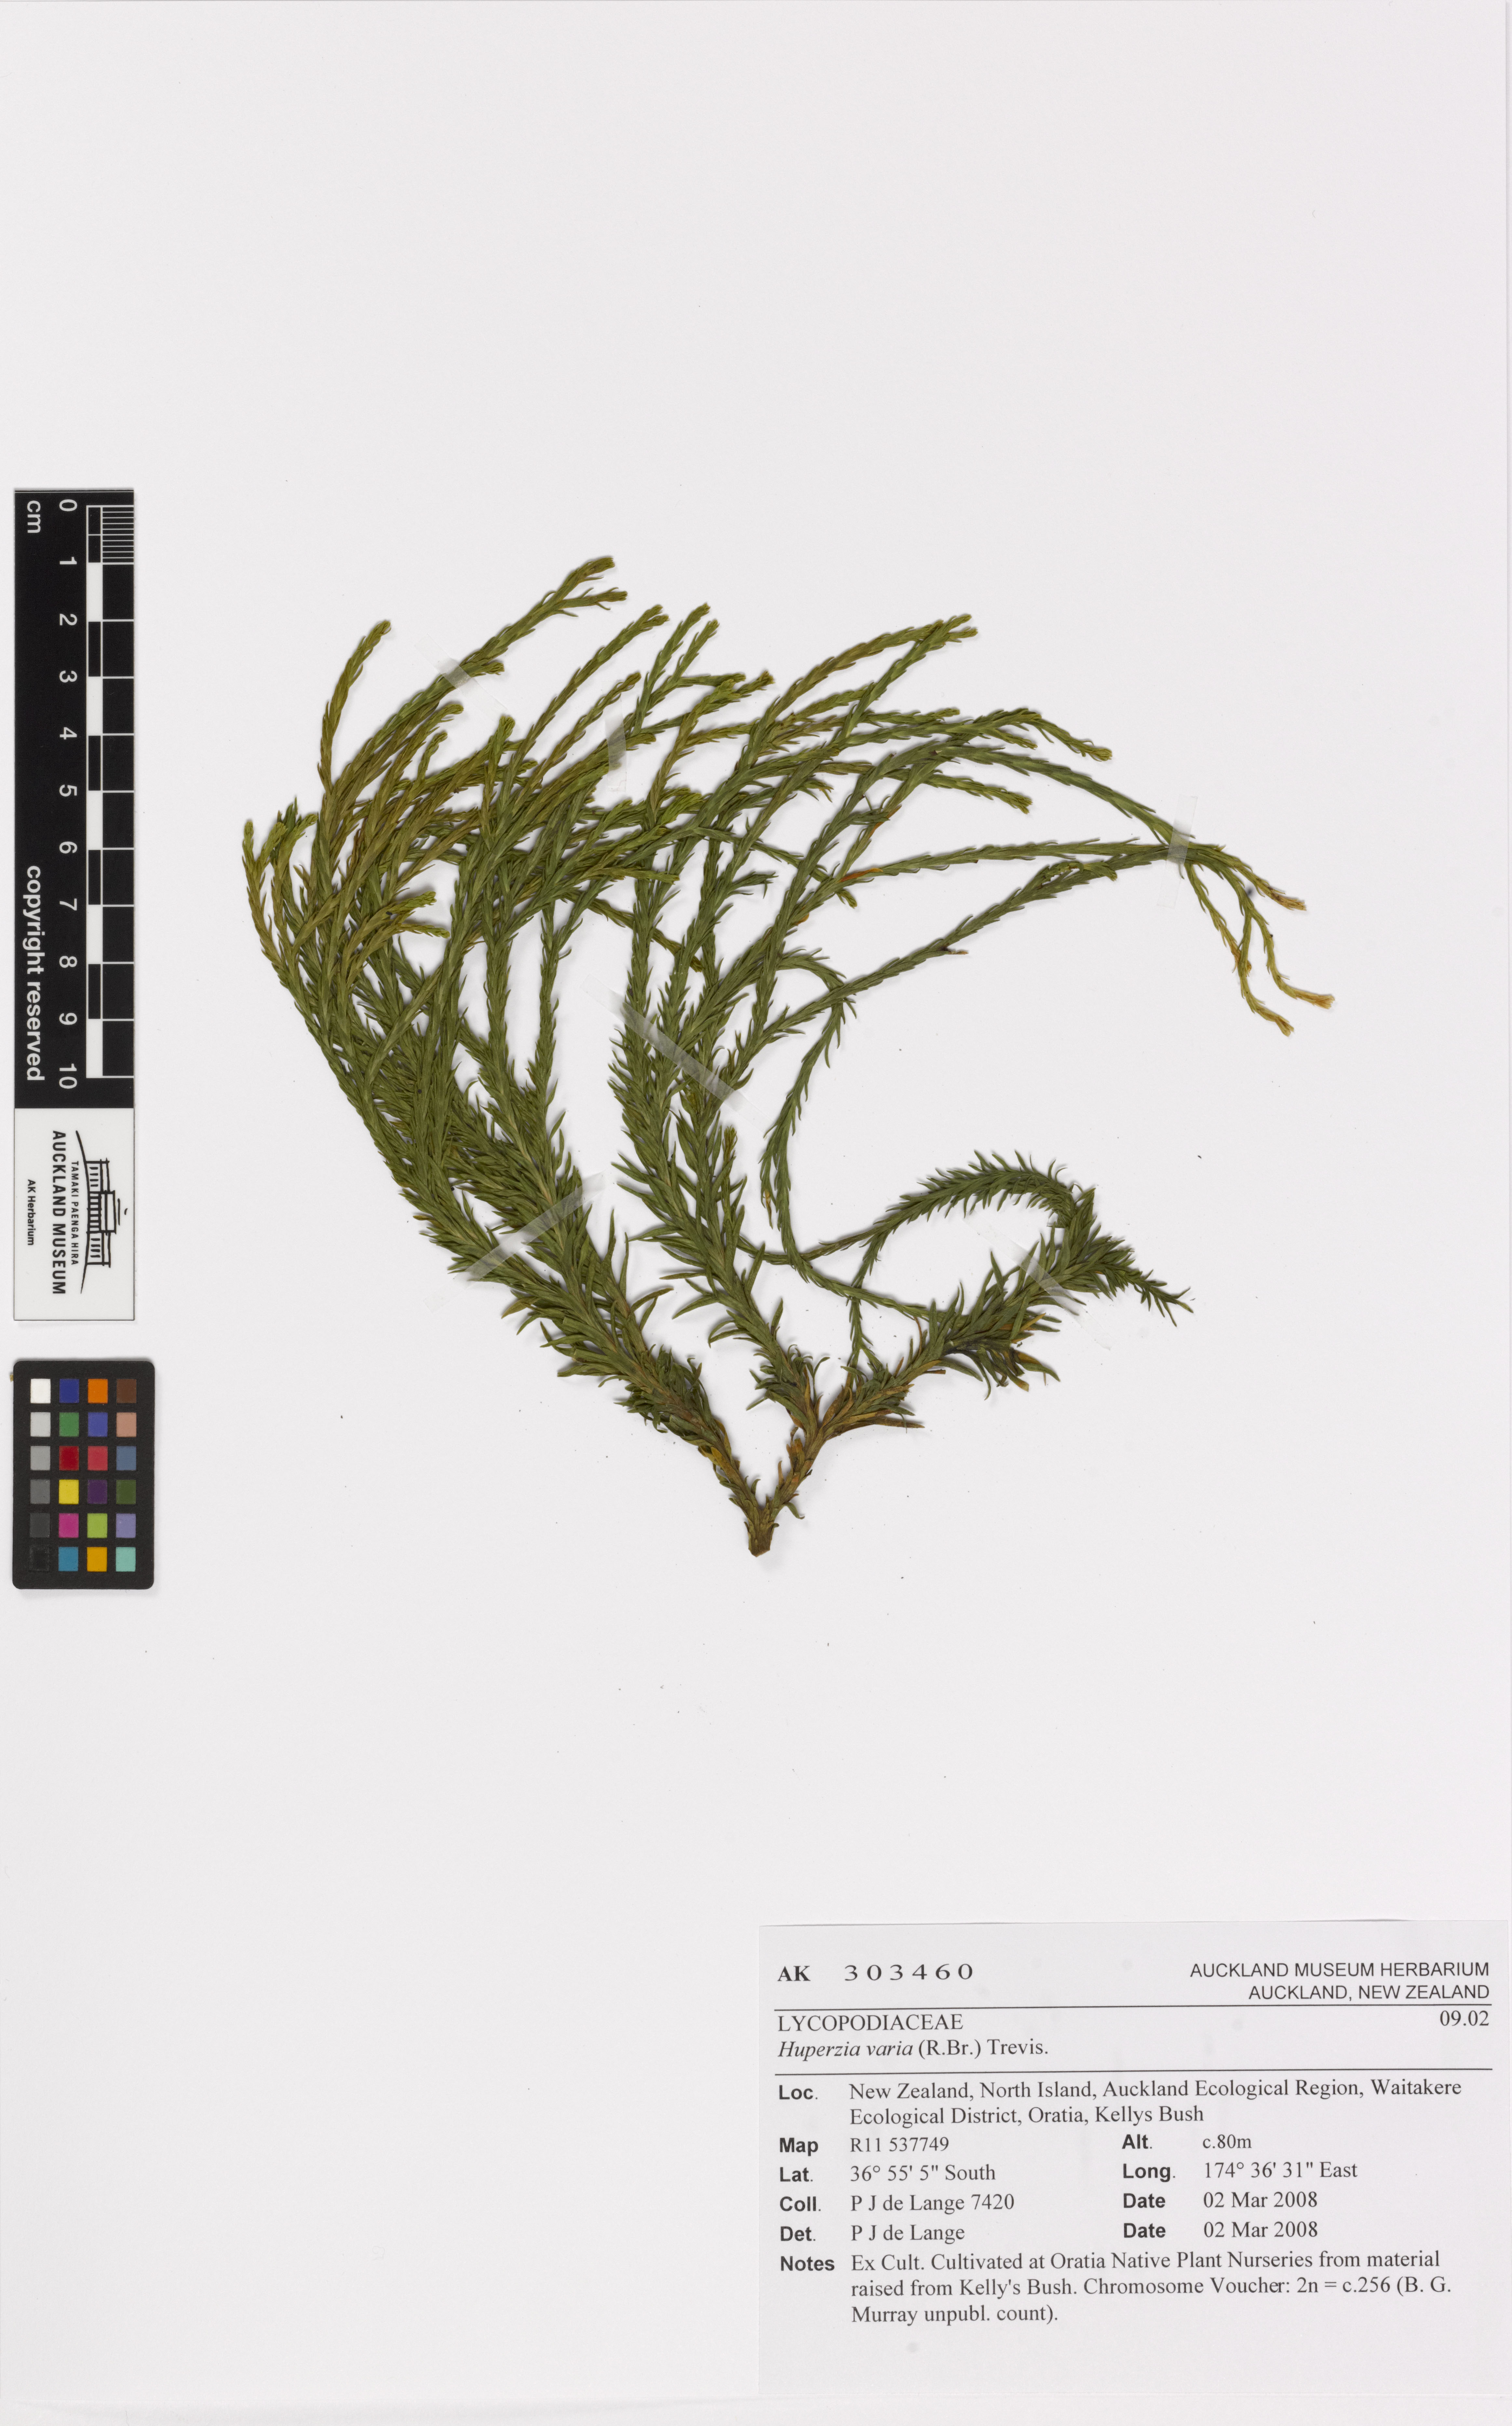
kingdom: Plantae
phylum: Tracheophyta
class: Lycopodiopsida
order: Lycopodiales
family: Lycopodiaceae
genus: Phlegmariurus
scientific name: Phlegmariurus
